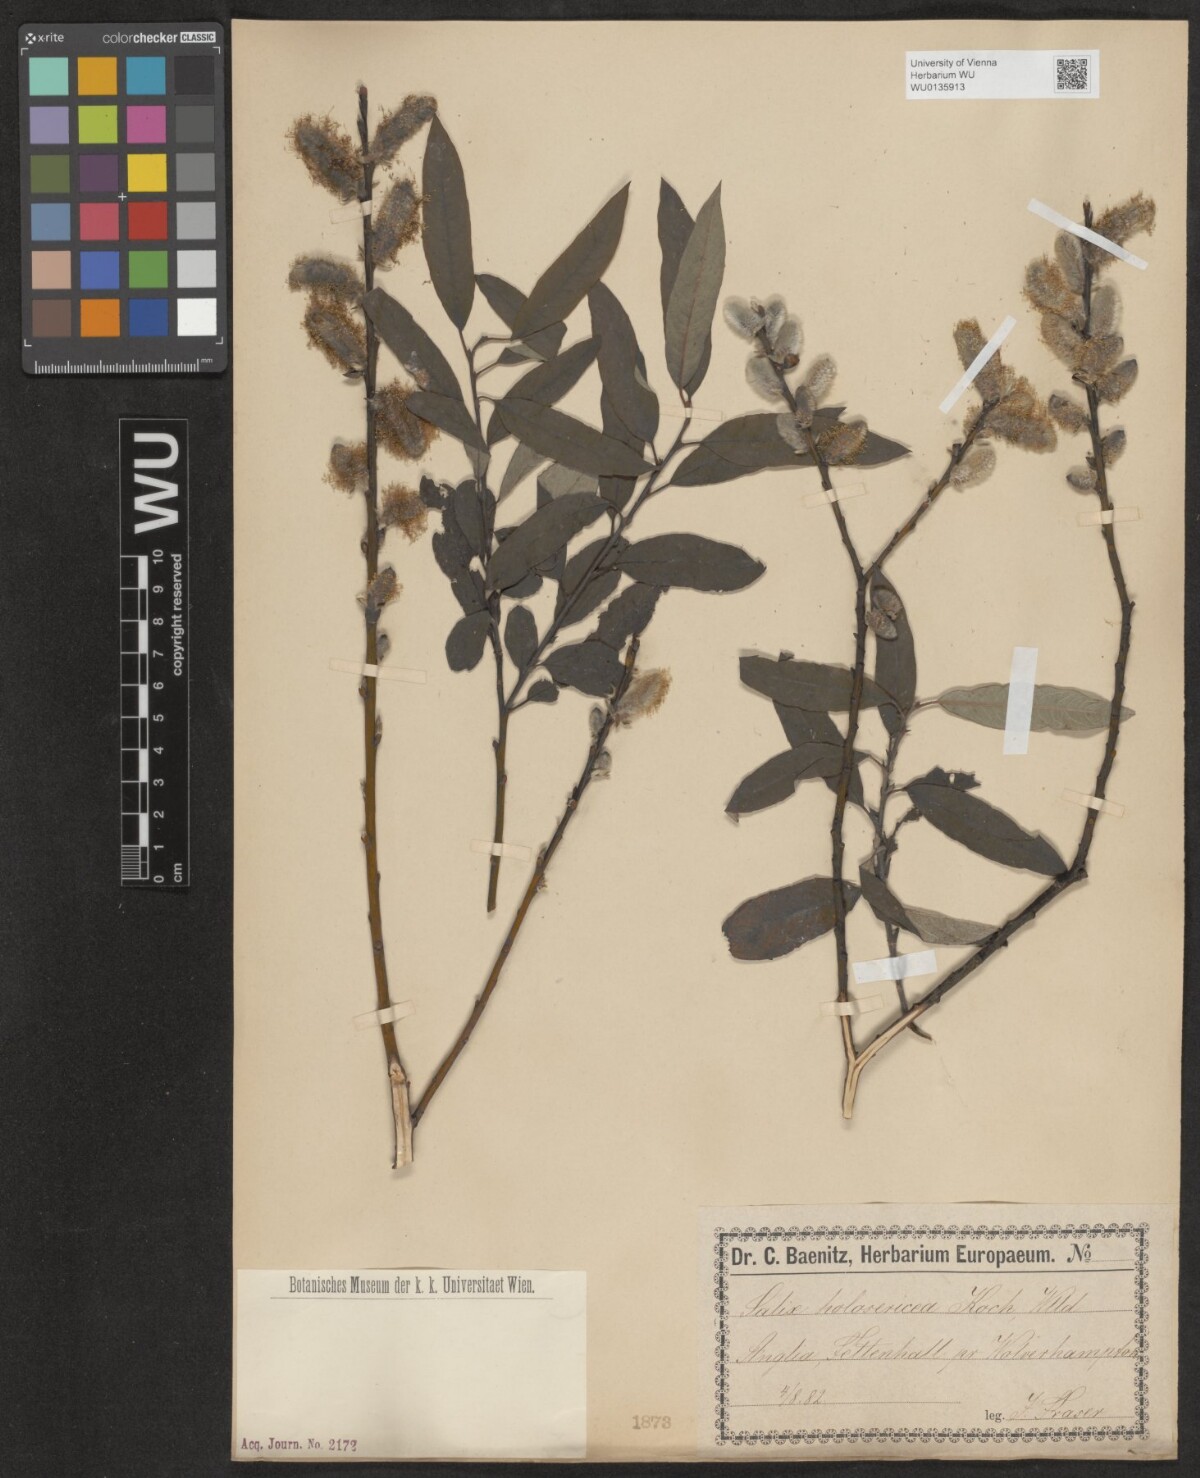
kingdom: Plantae
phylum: Tracheophyta
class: Magnoliopsida
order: Malpighiales
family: Salicaceae
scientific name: Salicaceae
